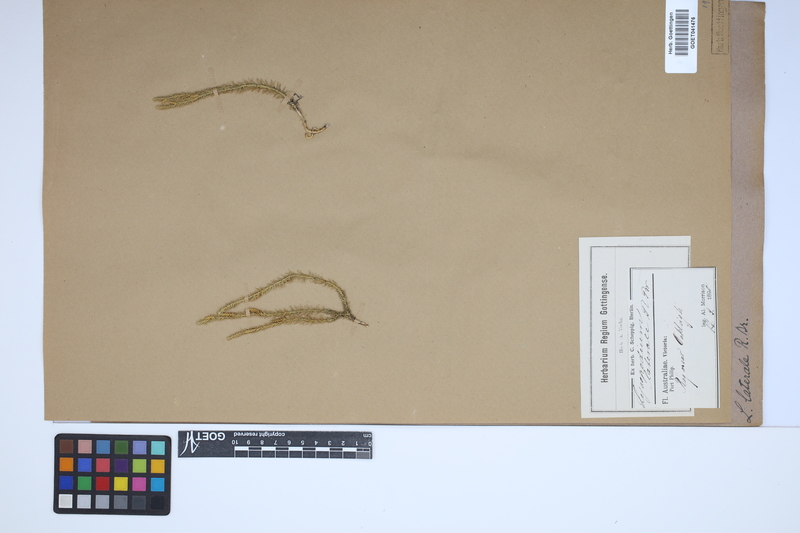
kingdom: Plantae
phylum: Tracheophyta
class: Lycopodiopsida
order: Lycopodiales
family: Lycopodiaceae
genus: Lateristachys
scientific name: Lateristachys lateralis
